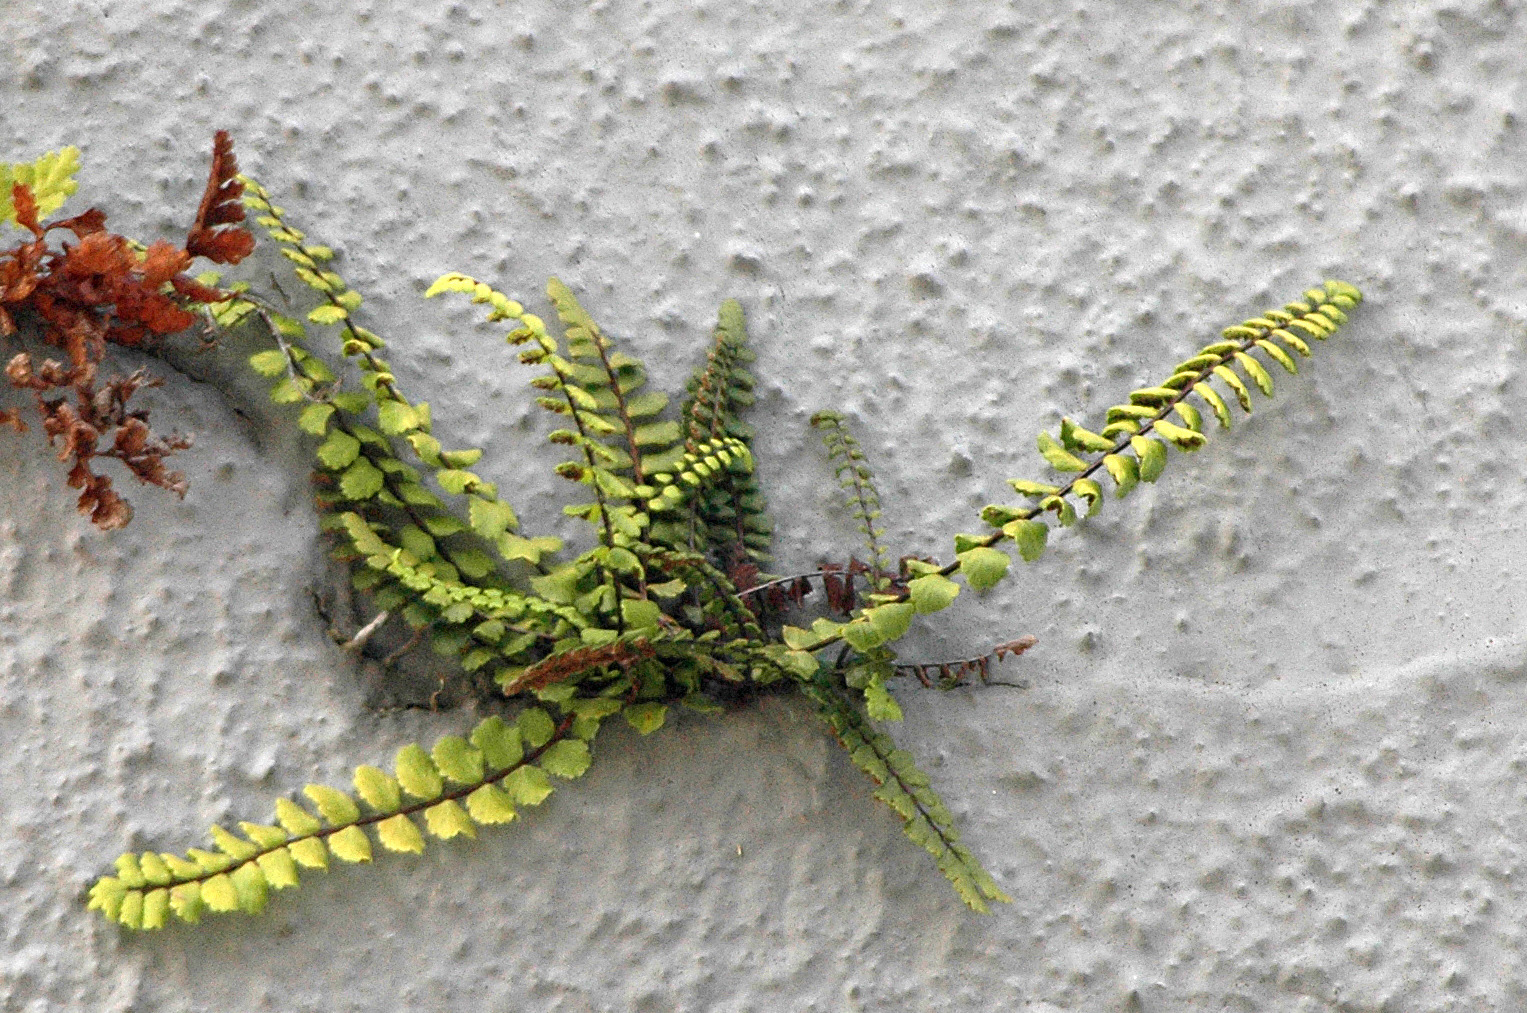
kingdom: Plantae
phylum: Tracheophyta
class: Polypodiopsida
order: Polypodiales
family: Aspleniaceae
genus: Asplenium
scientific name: Asplenium trichomanes
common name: Rundfinnet radeløv
